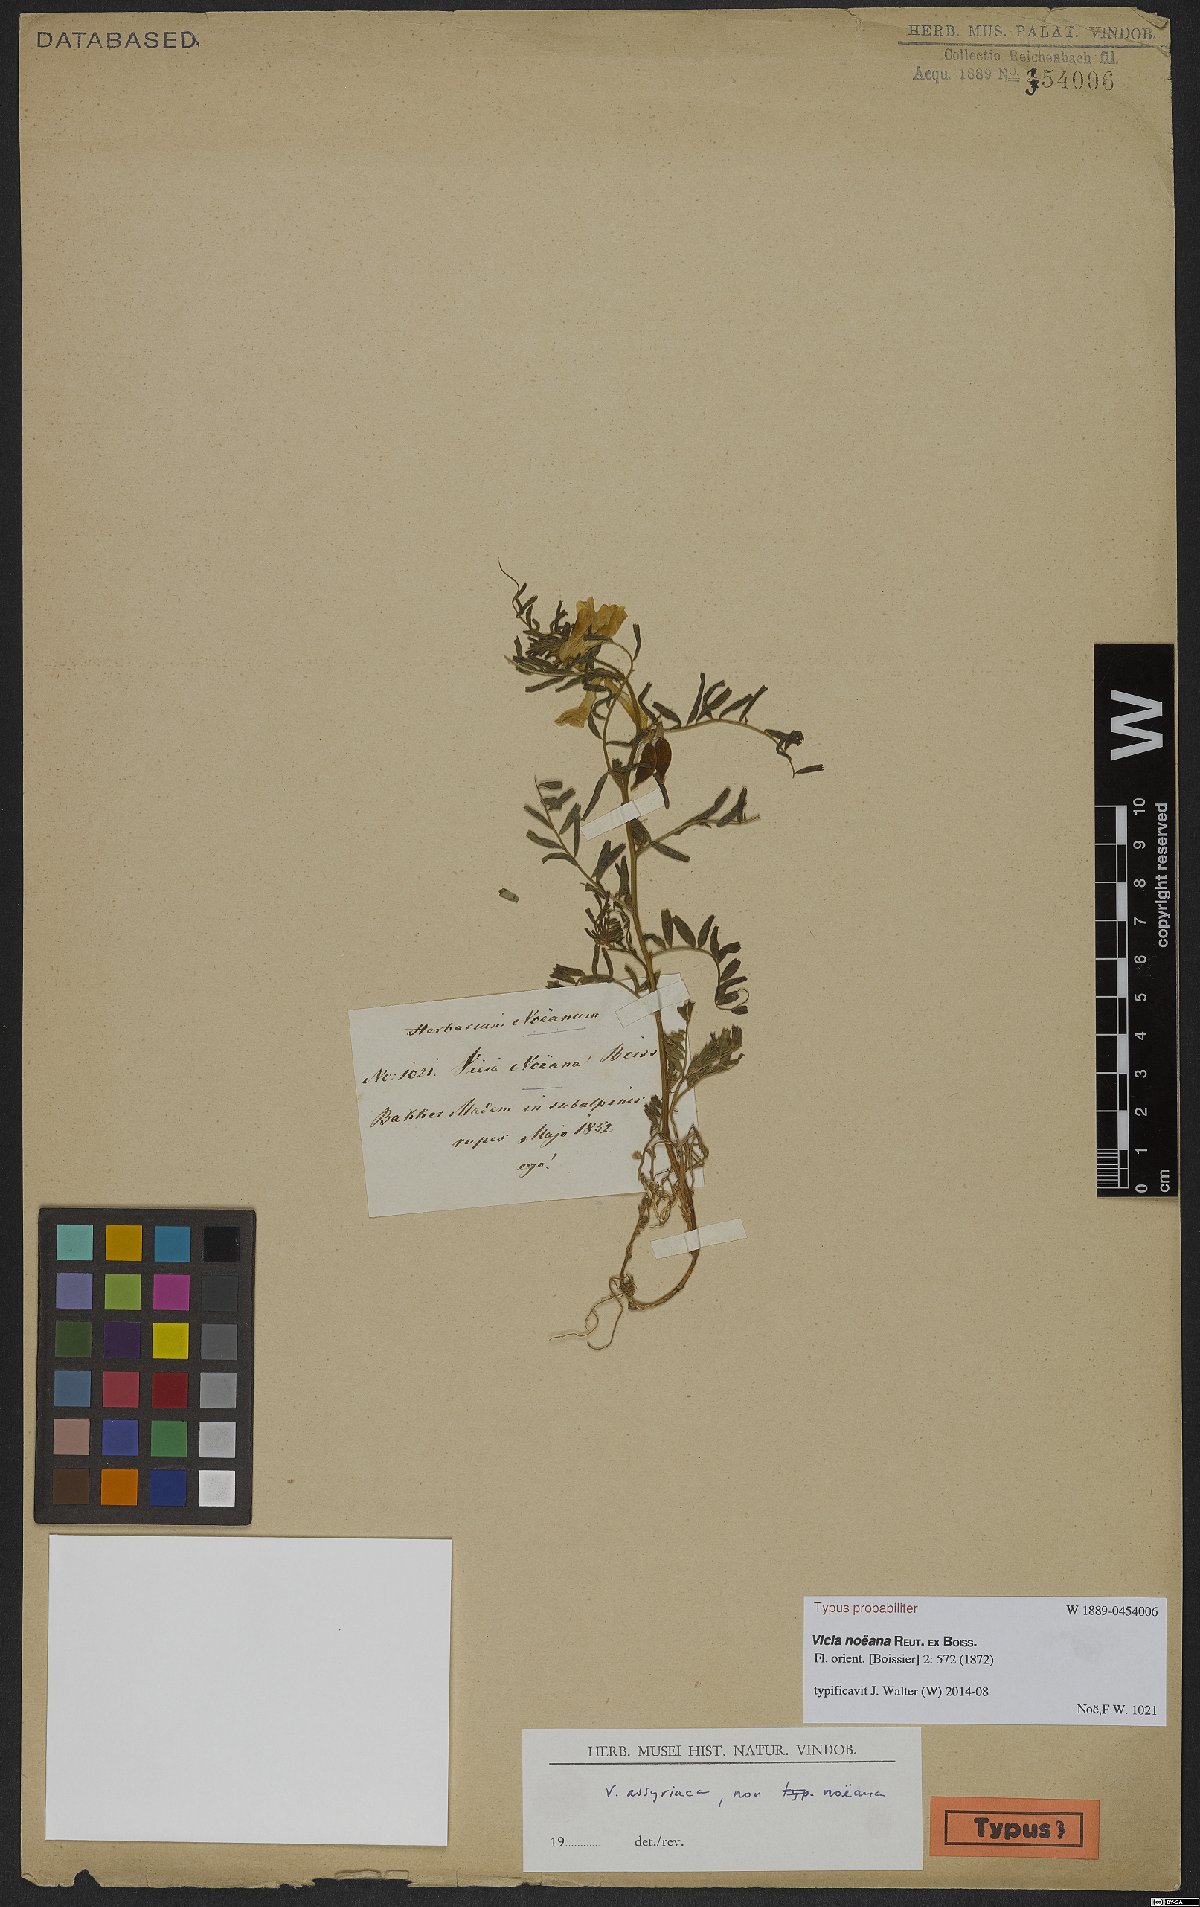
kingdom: Plantae
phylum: Tracheophyta
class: Magnoliopsida
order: Fabales
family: Fabaceae
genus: Vicia
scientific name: Vicia noeana
